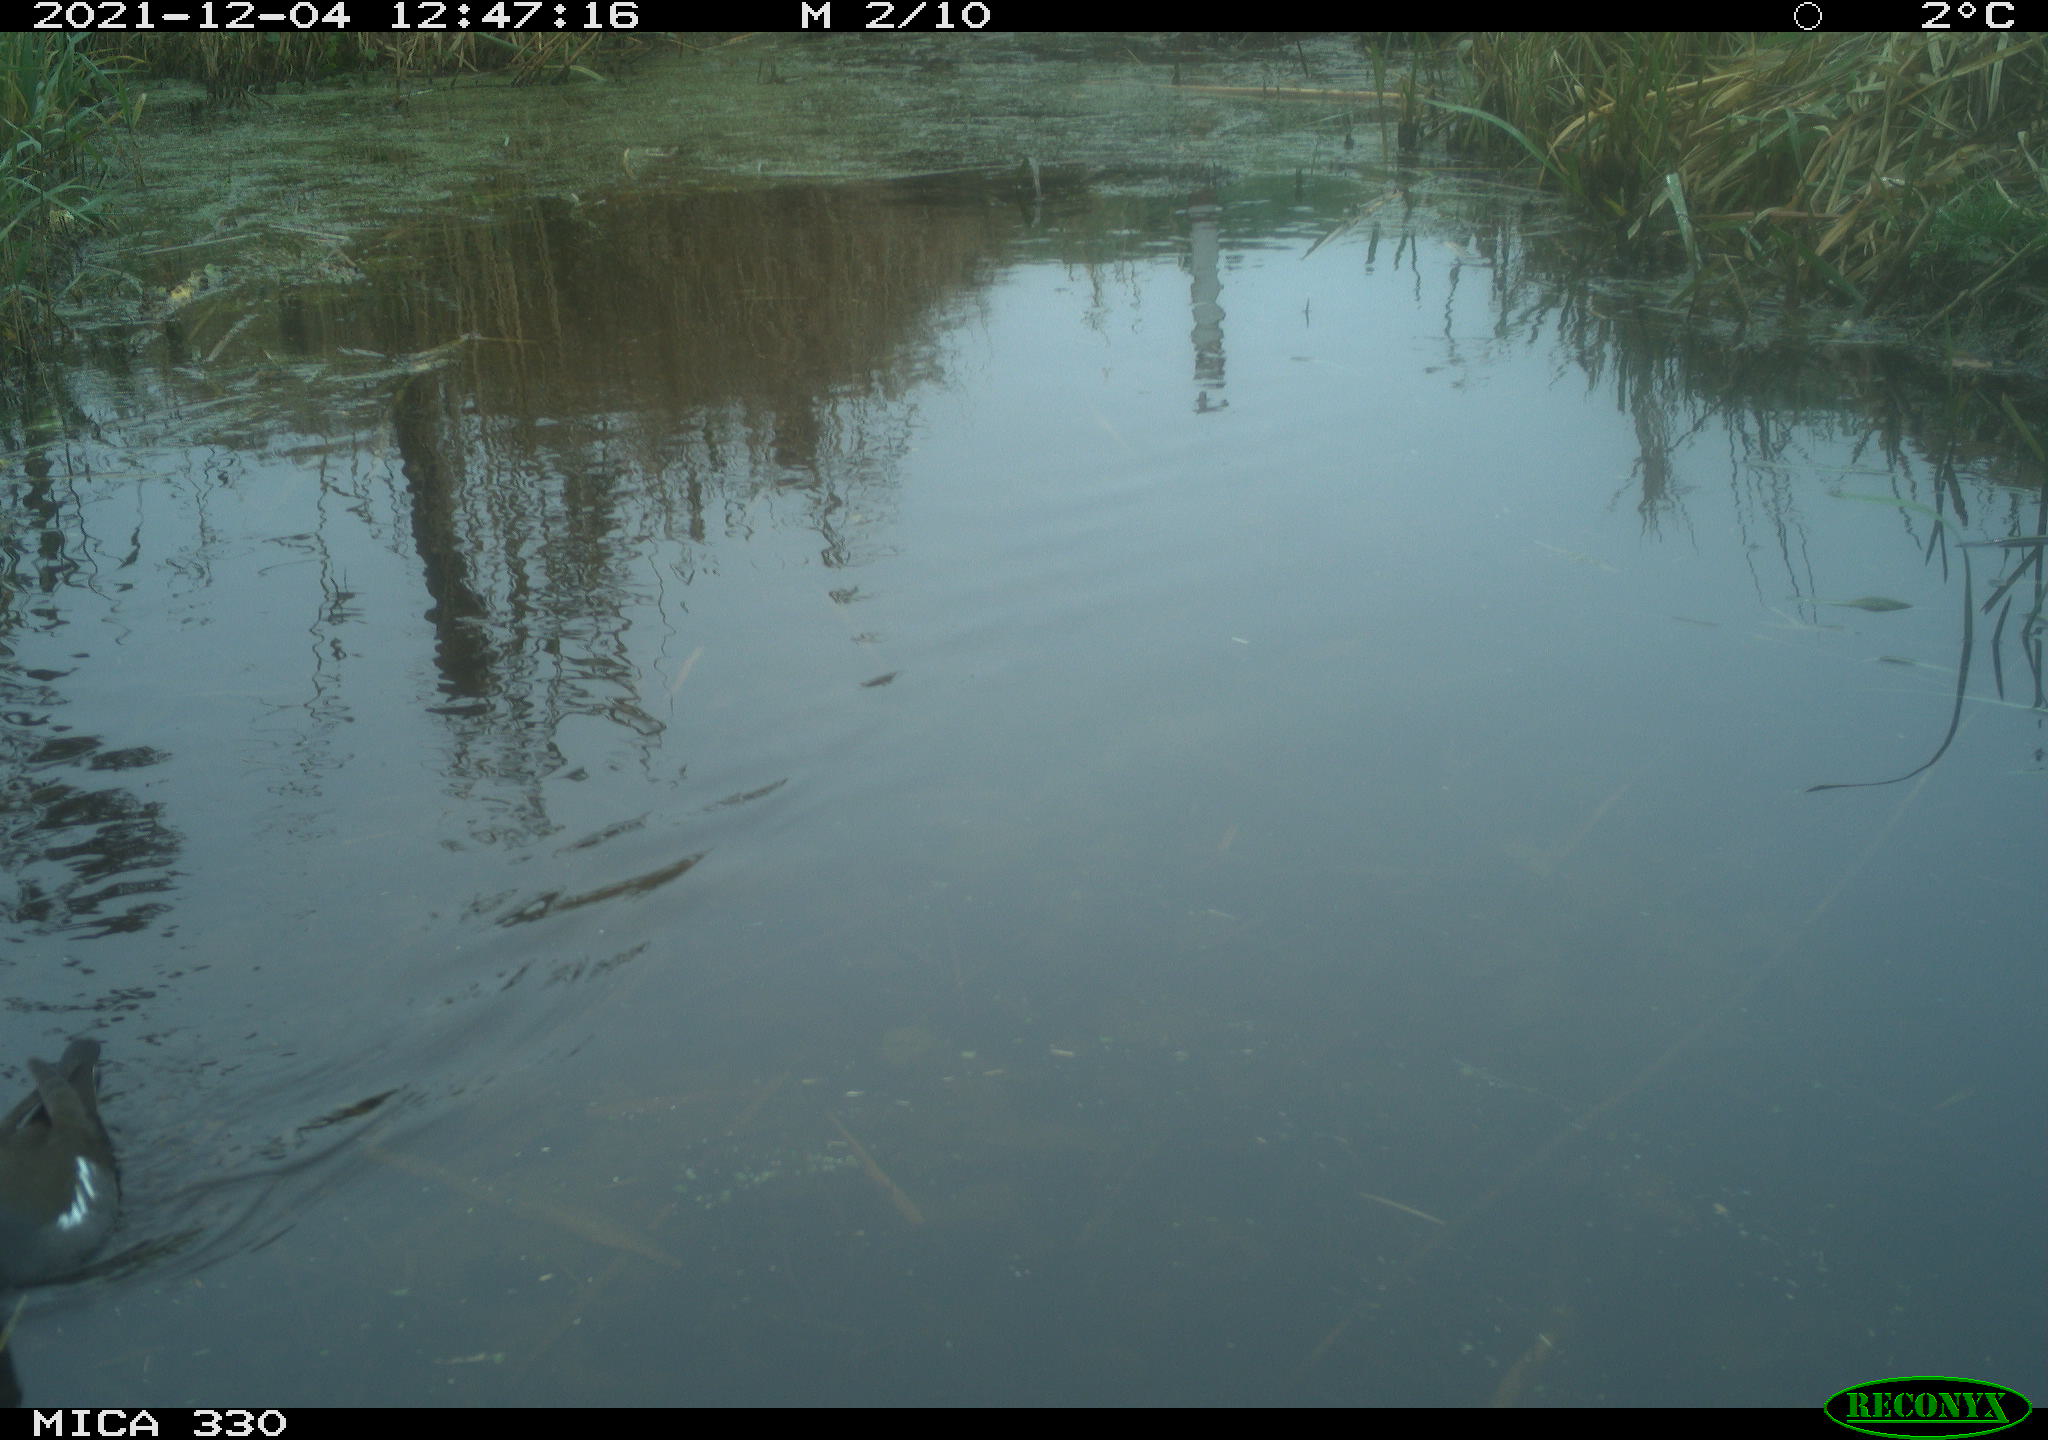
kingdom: Animalia
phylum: Chordata
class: Aves
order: Gruiformes
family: Rallidae
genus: Gallinula
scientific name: Gallinula chloropus
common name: Common moorhen
